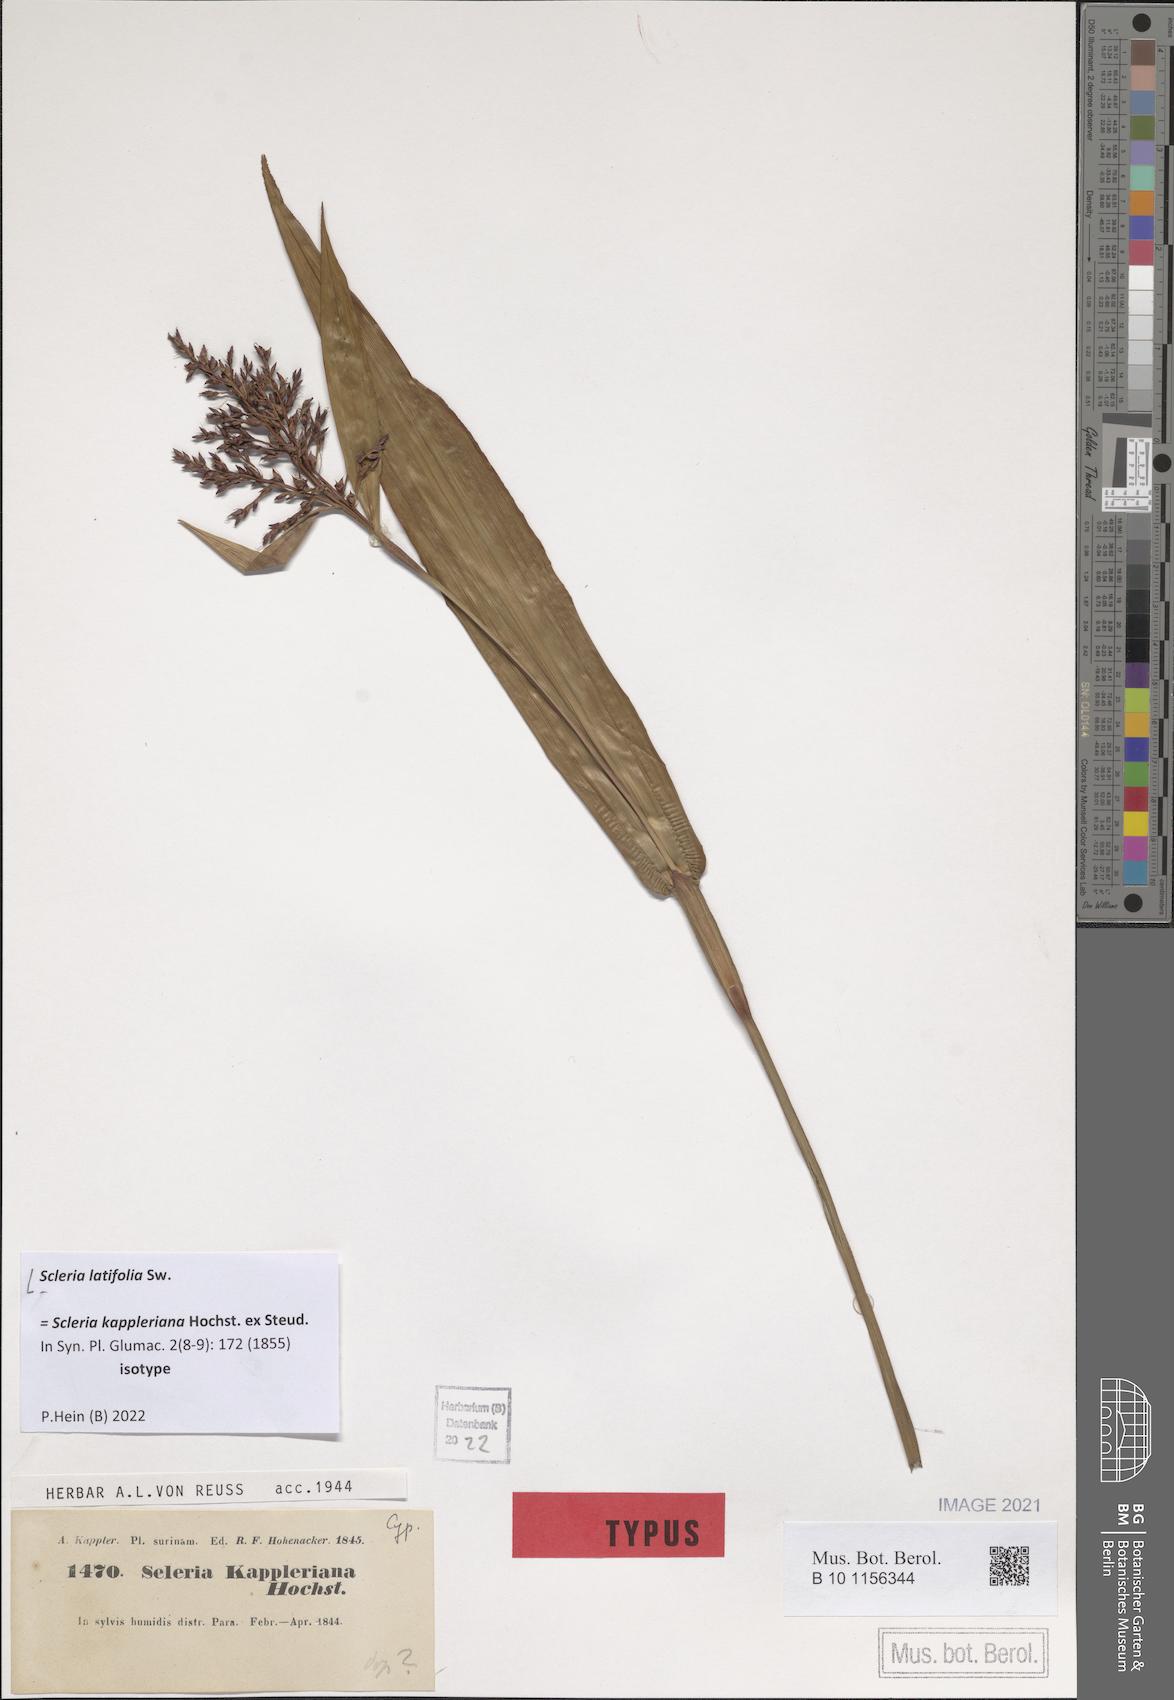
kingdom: Plantae
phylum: Tracheophyta
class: Liliopsida
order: Poales
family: Cyperaceae
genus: Scleria
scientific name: Scleria latifolia
